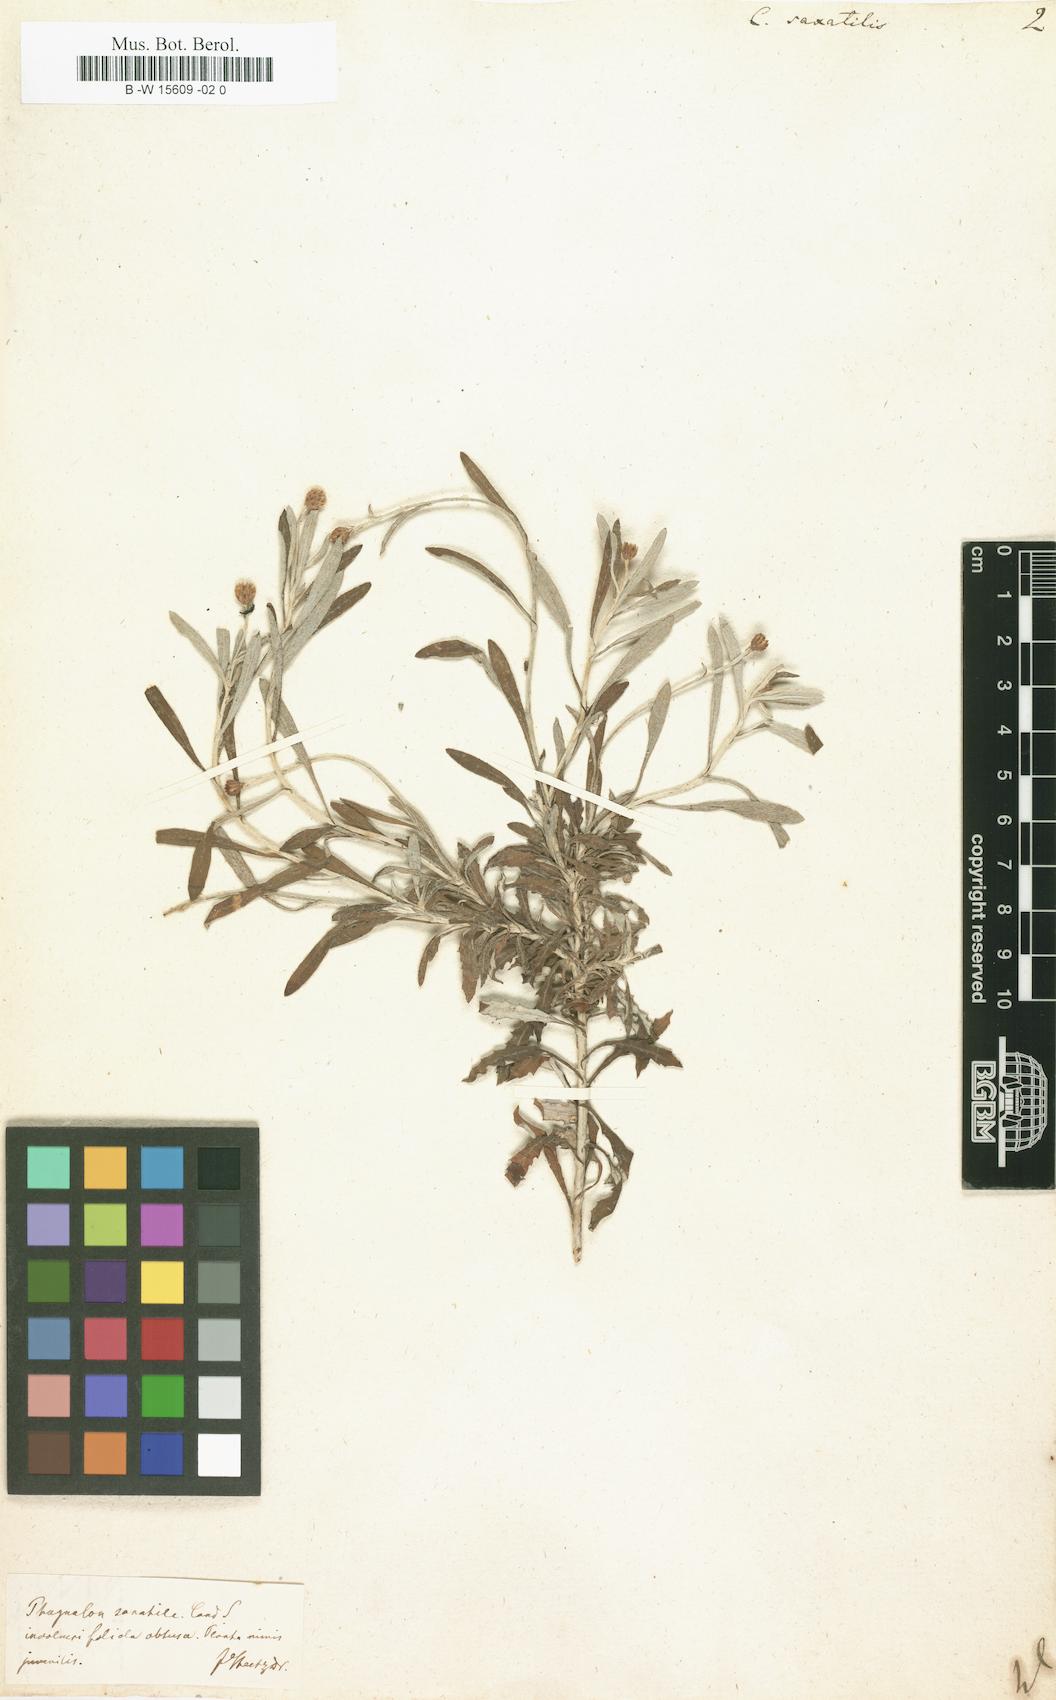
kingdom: Plantae
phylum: Tracheophyta
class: Magnoliopsida
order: Asterales
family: Asteraceae
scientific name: Asteraceae
